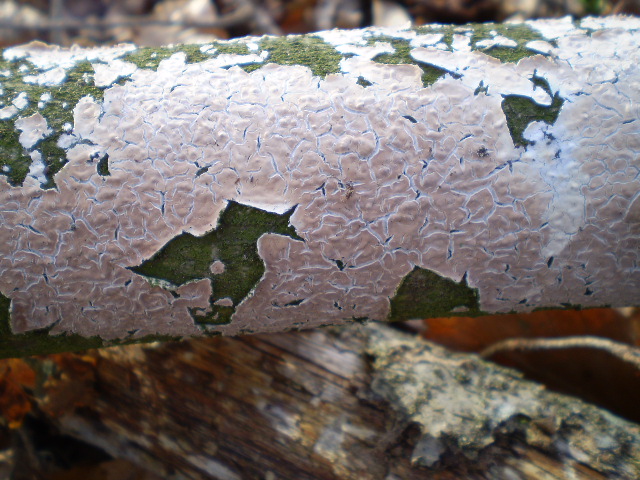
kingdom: Fungi
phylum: Basidiomycota
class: Agaricomycetes
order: Agaricales
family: Physalacriaceae
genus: Cylindrobasidium
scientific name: Cylindrobasidium evolvens
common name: sprækkehinde
